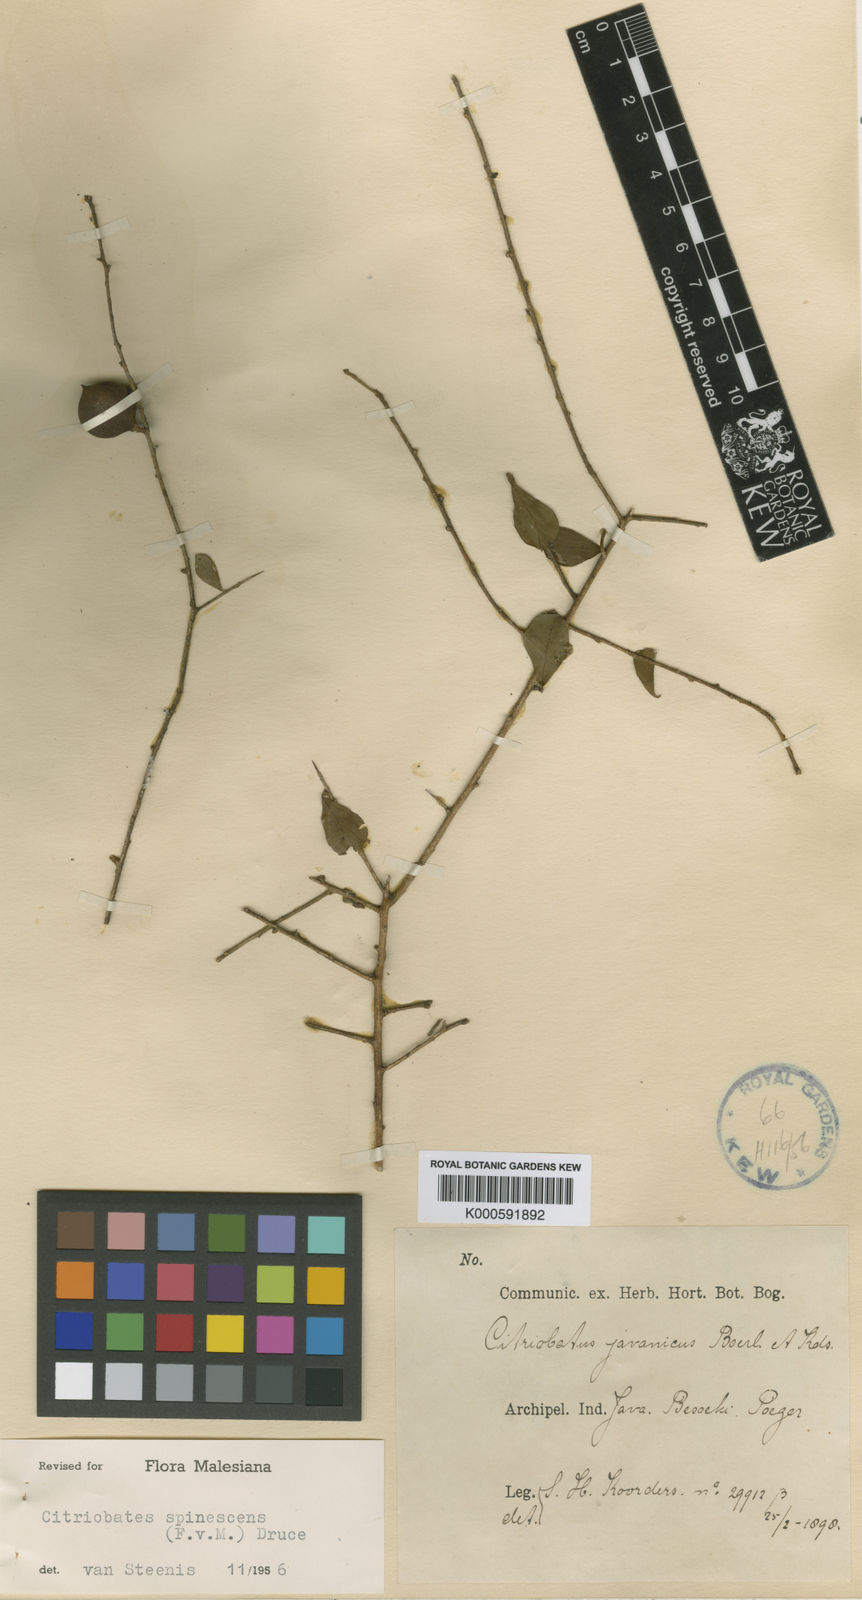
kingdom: Plantae
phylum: Tracheophyta
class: Magnoliopsida
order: Apiales
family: Pittosporaceae
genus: Pittosporum
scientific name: Pittosporum spinescens
